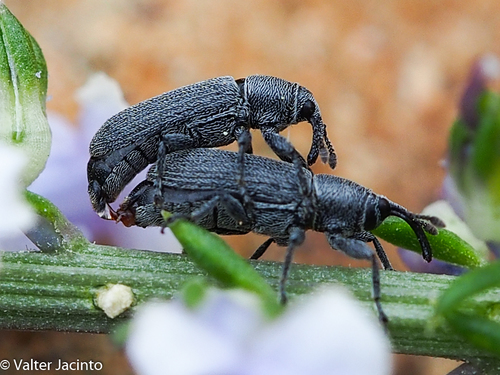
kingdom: Animalia
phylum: Arthropoda
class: Insecta
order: Coleoptera
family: Curculionidae
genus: Mecinus
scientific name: Mecinus
